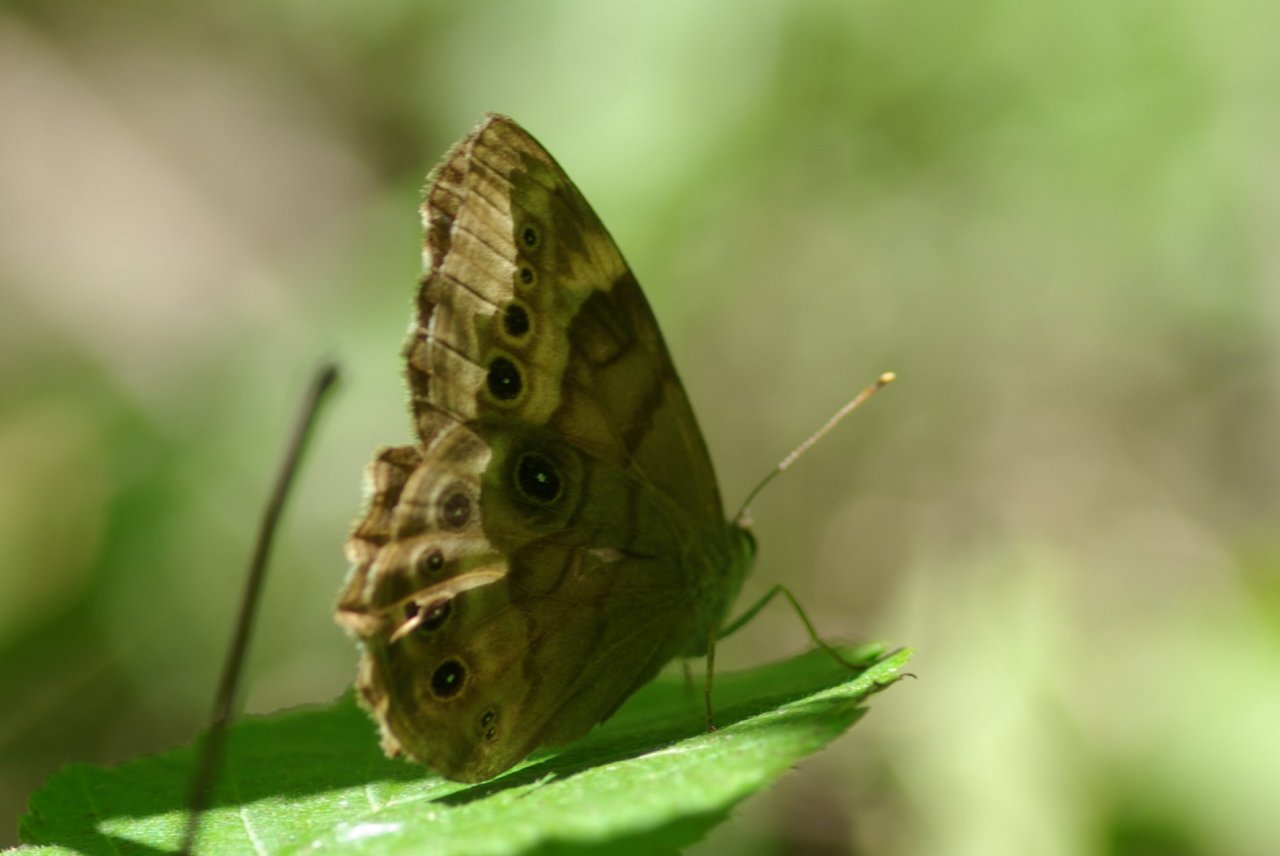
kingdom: Animalia
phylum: Arthropoda
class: Insecta
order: Lepidoptera
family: Nymphalidae
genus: Lethe
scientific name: Lethe anthedon
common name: Northern Pearly-Eye
